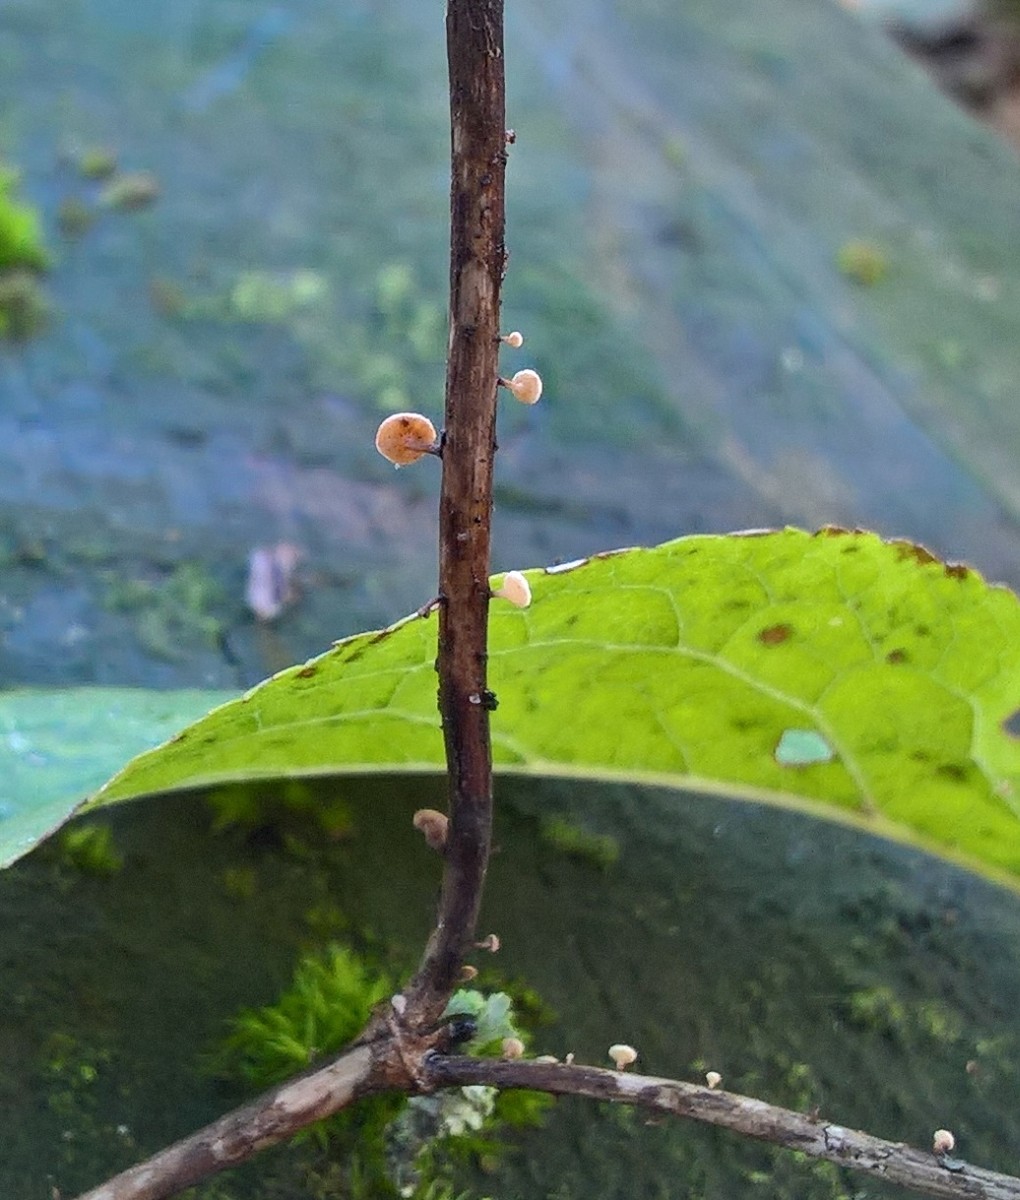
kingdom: Fungi
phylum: Ascomycota
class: Leotiomycetes
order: Helotiales
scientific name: Helotiales
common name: stilkskiveordenen
